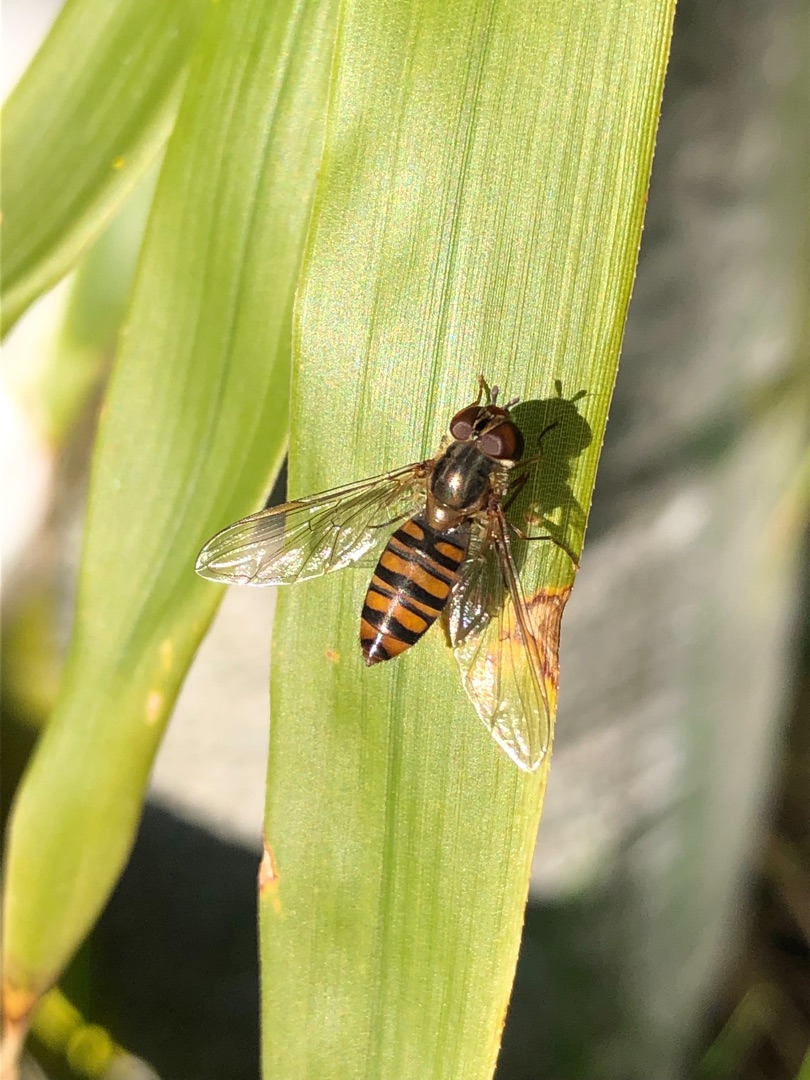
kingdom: Animalia
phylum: Arthropoda
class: Insecta
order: Diptera
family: Syrphidae
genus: Episyrphus
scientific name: Episyrphus balteatus
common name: Dobbeltbåndet svirreflue
